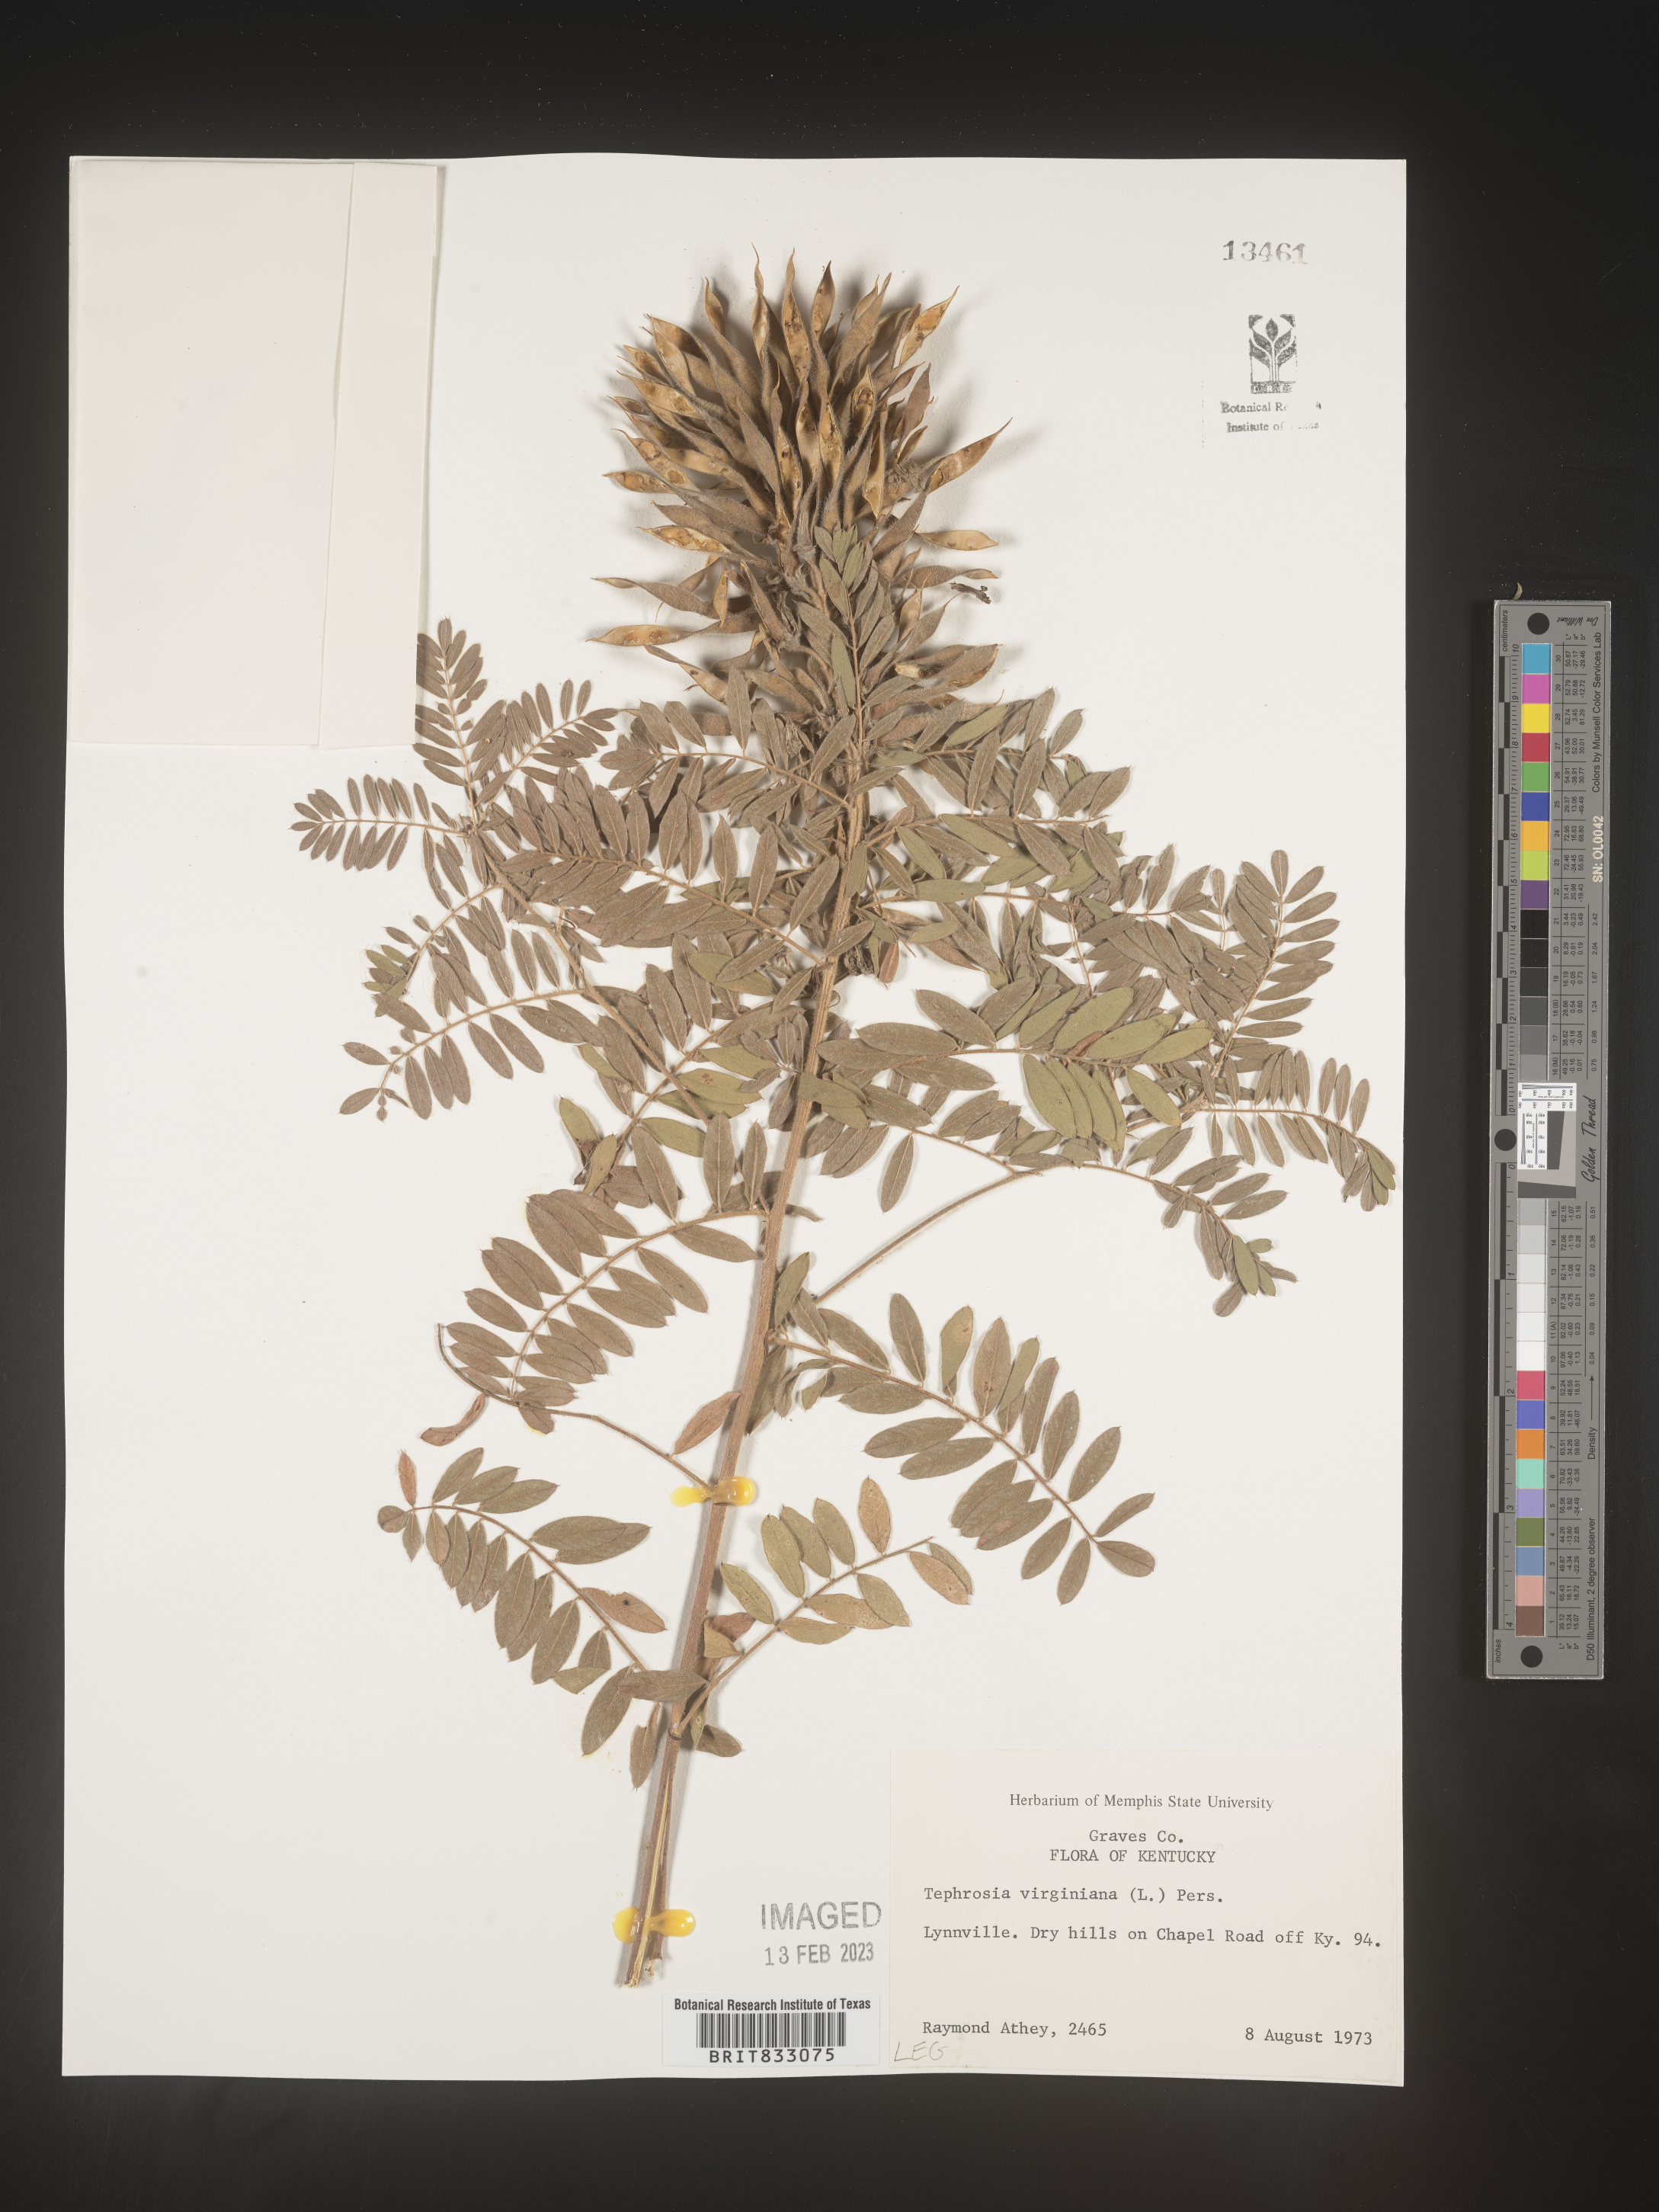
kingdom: Plantae
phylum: Tracheophyta
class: Magnoliopsida
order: Fabales
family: Fabaceae
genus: Tephrosia
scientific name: Tephrosia virginiana
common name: Rabbit-pea
